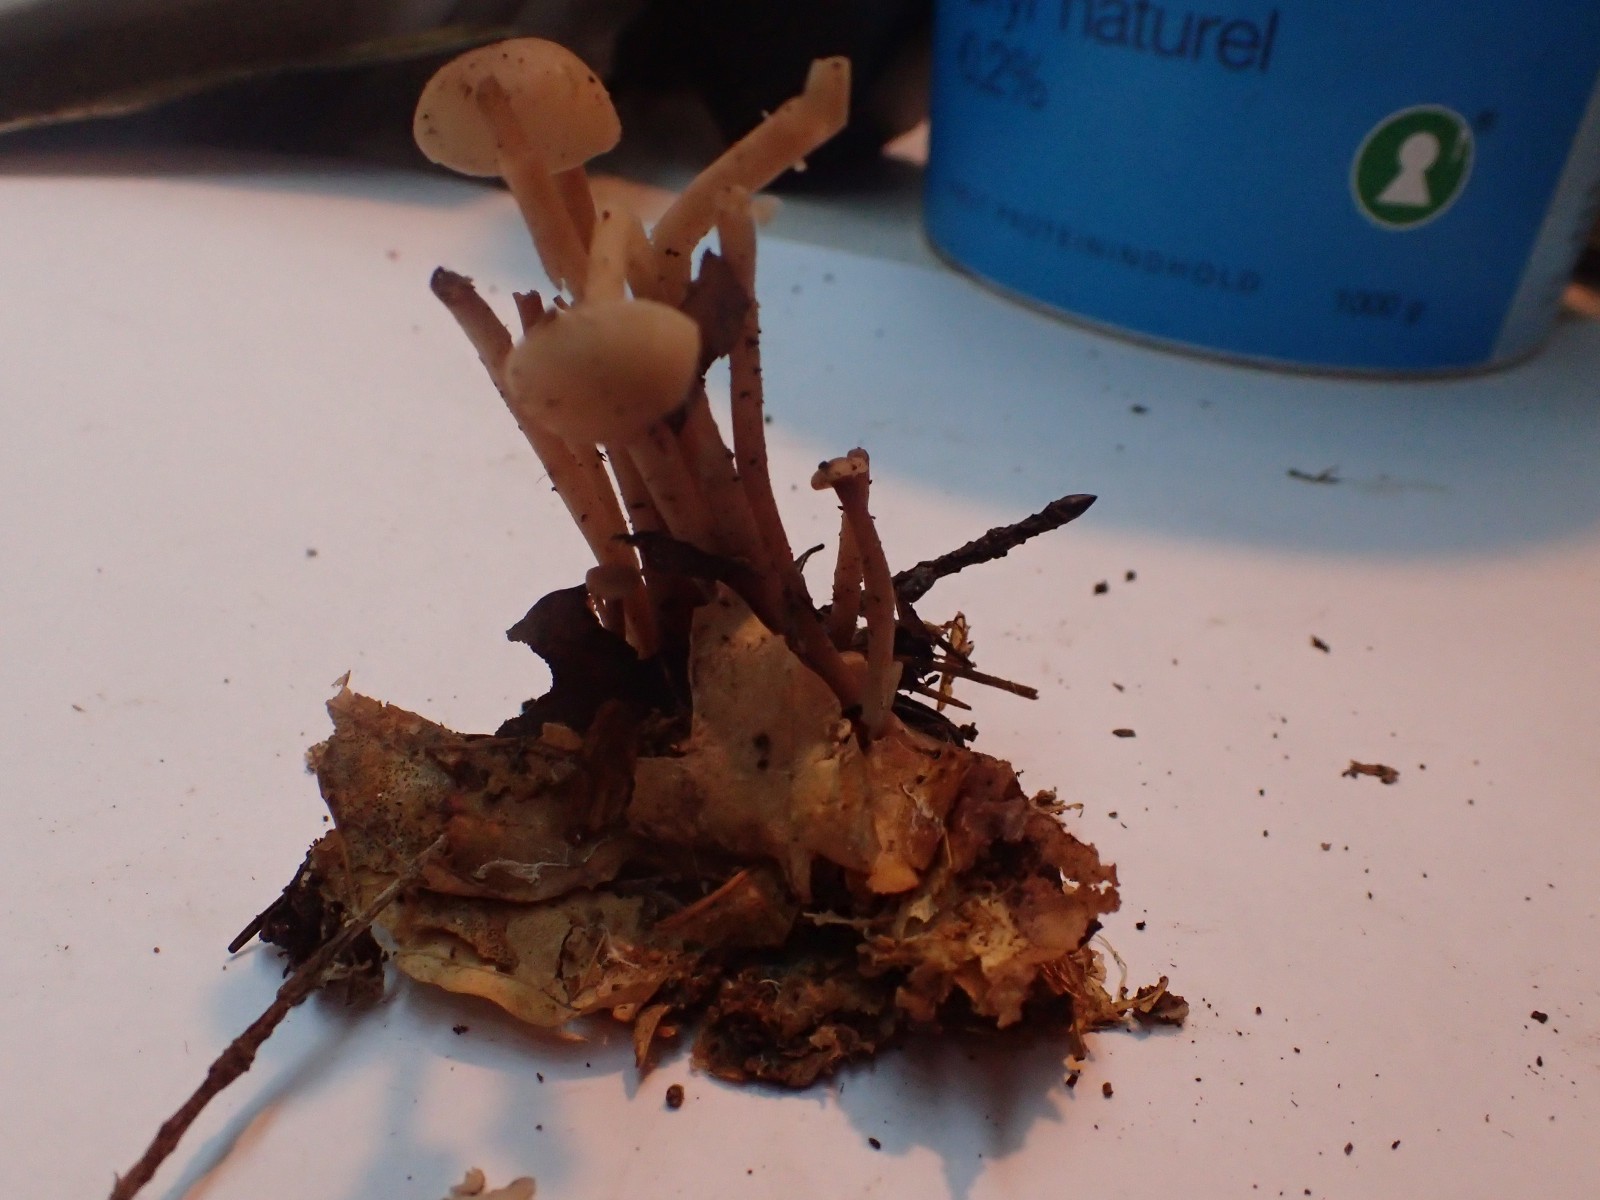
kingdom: Fungi
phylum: Basidiomycota
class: Agaricomycetes
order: Agaricales
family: Omphalotaceae
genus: Collybiopsis
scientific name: Collybiopsis confluens
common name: knippe-fladhat
